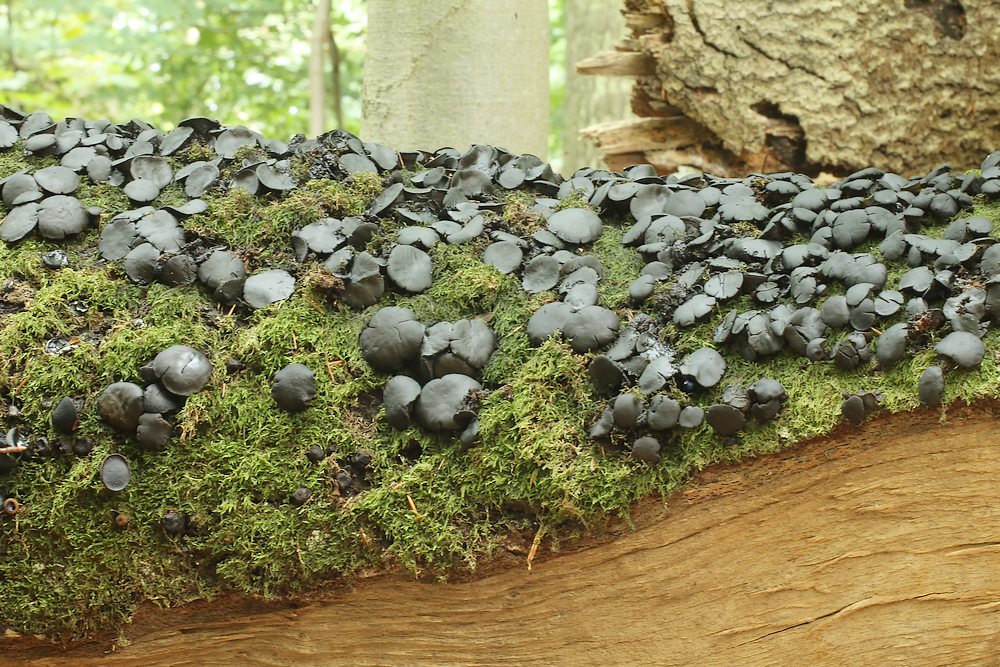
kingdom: Fungi
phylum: Ascomycota
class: Leotiomycetes
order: Phacidiales
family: Phacidiaceae
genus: Bulgaria
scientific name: Bulgaria inquinans
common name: afsmittende topsvamp
